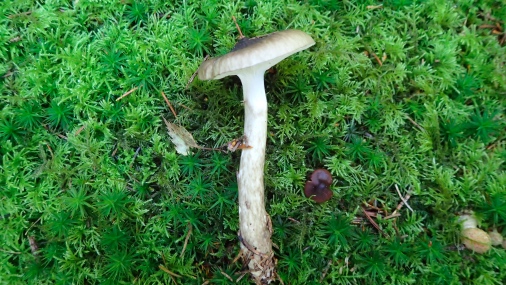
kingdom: Fungi
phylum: Basidiomycota
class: Agaricomycetes
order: Agaricales
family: Hygrophoraceae
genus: Hygrophorus
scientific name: Hygrophorus olivaceoalbus
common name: hvidbrun sneglehat
